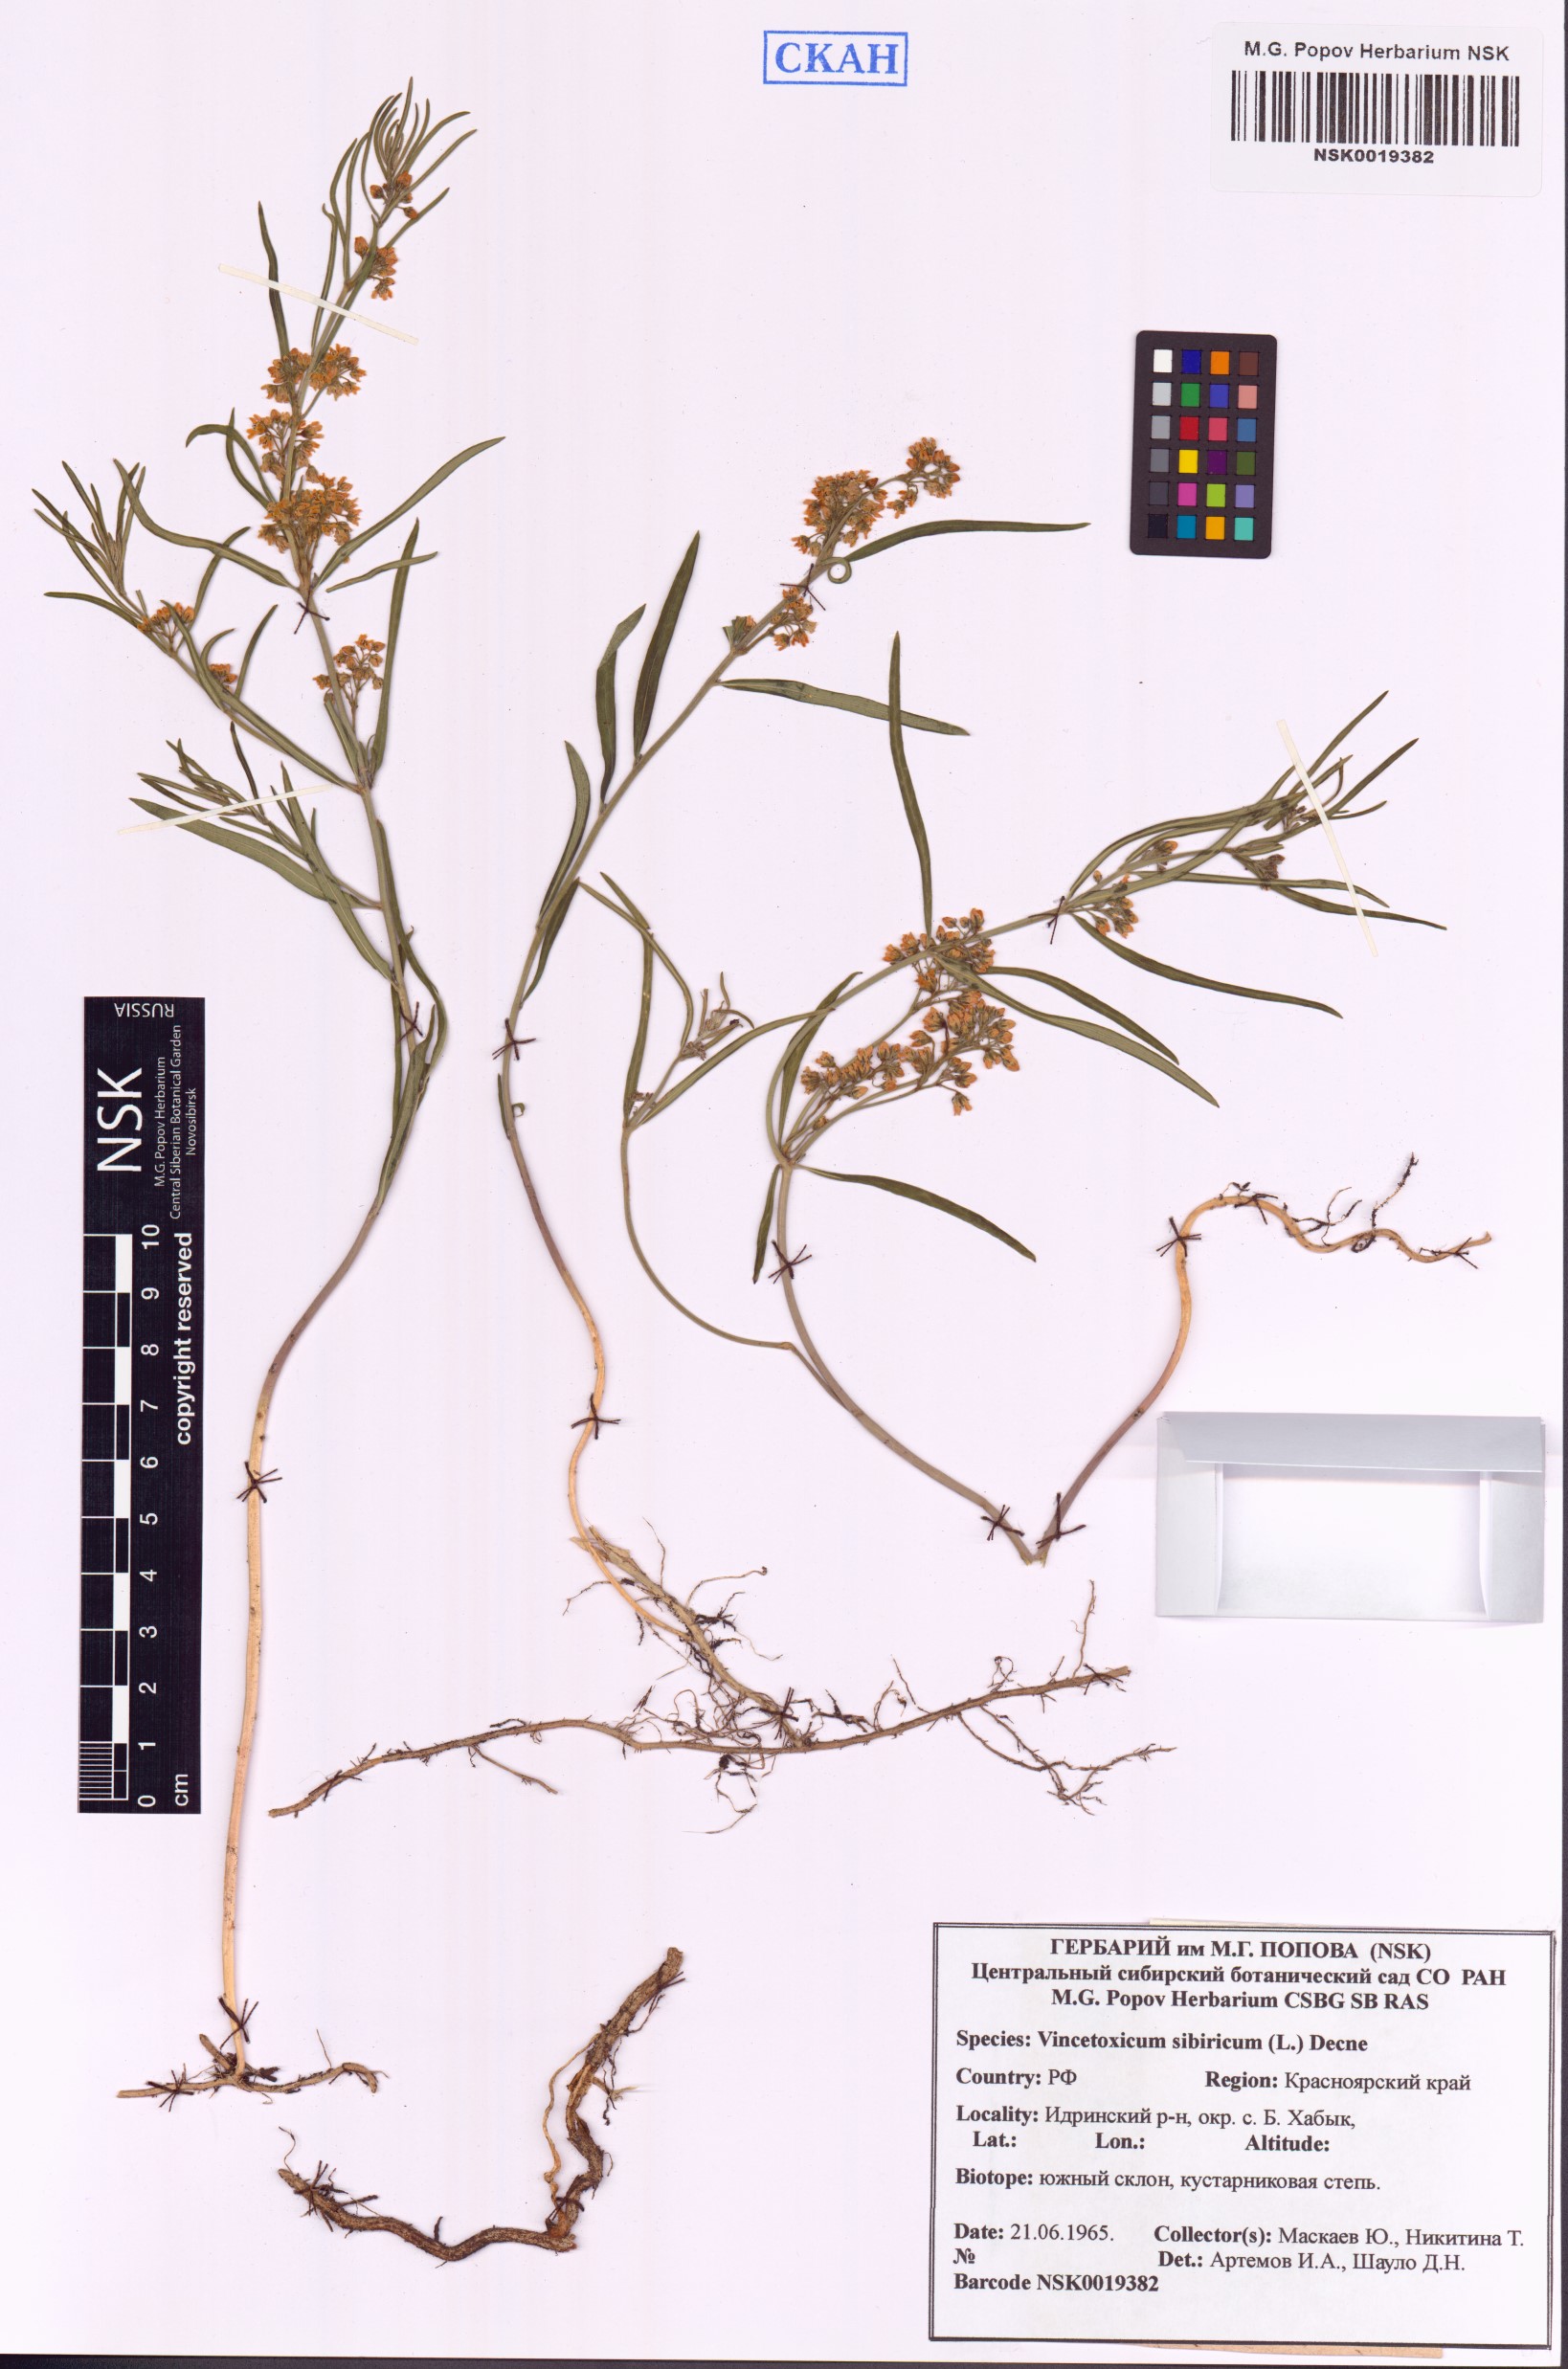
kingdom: Plantae
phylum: Tracheophyta
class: Magnoliopsida
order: Gentianales
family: Apocynaceae
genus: Cynanchum
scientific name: Cynanchum thesioides
